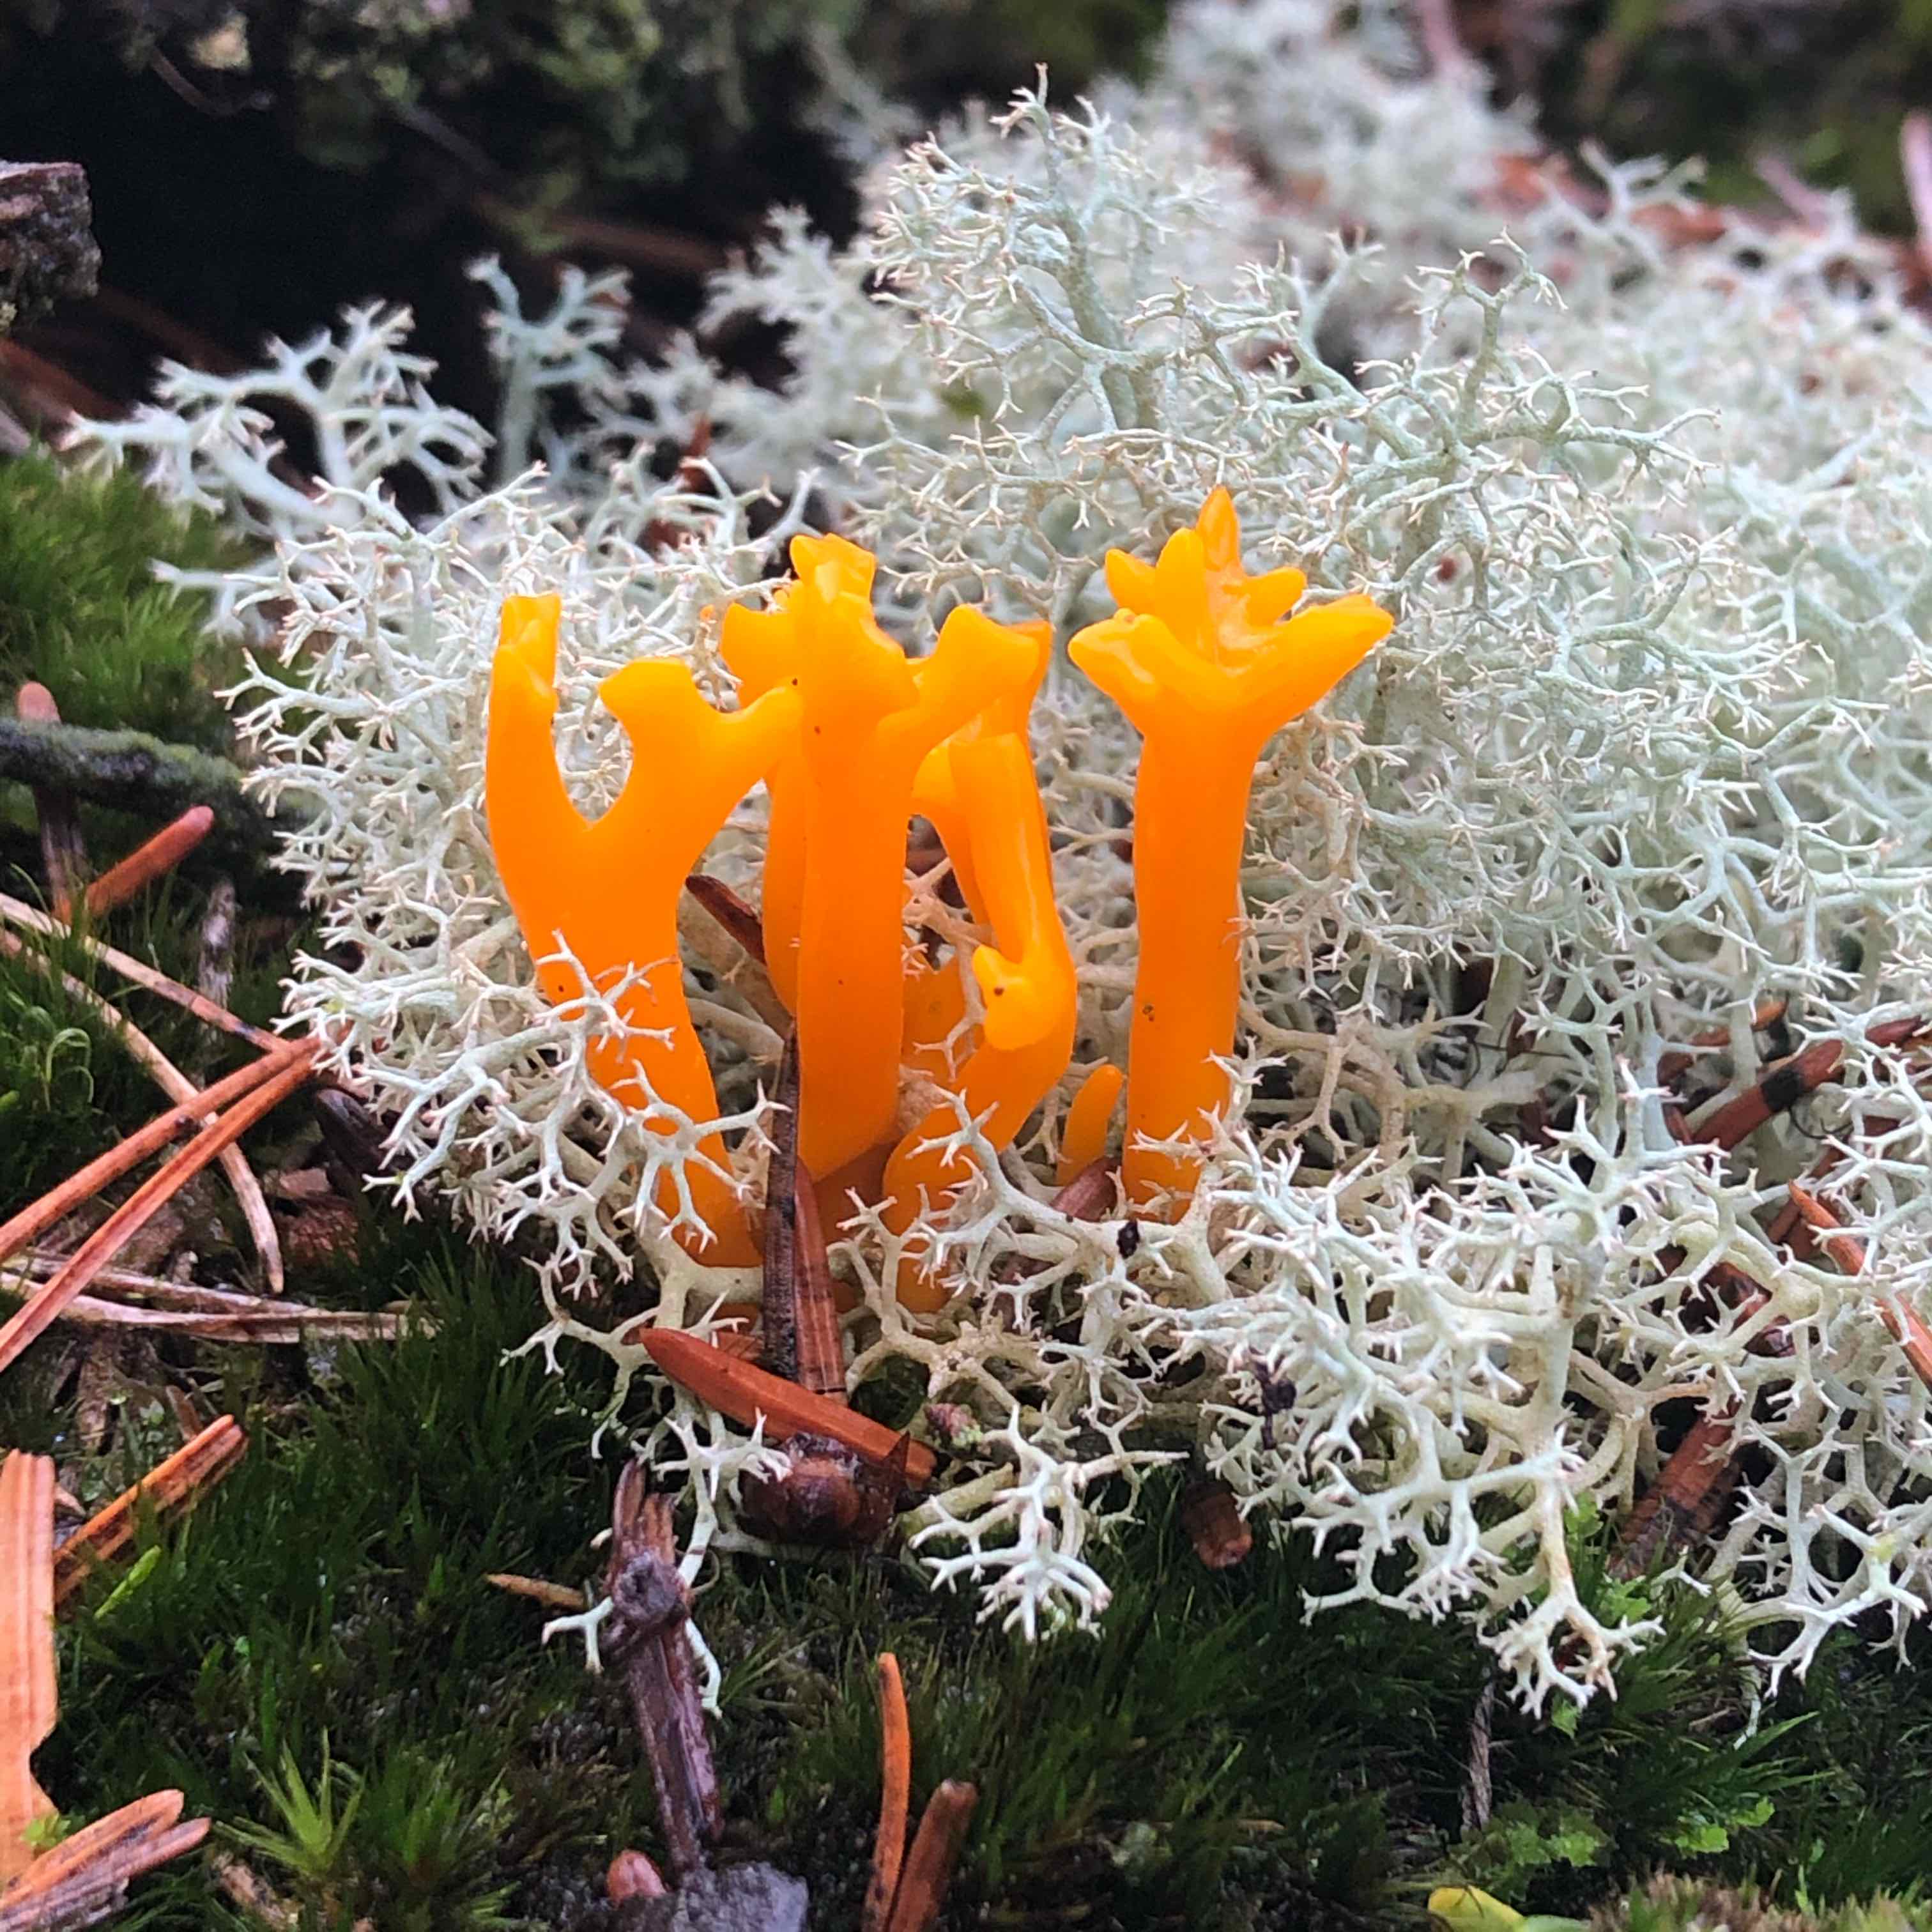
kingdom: Fungi
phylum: Basidiomycota
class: Dacrymycetes
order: Dacrymycetales
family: Dacrymycetaceae
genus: Calocera
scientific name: Calocera viscosa
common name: almindelig guldgaffel
